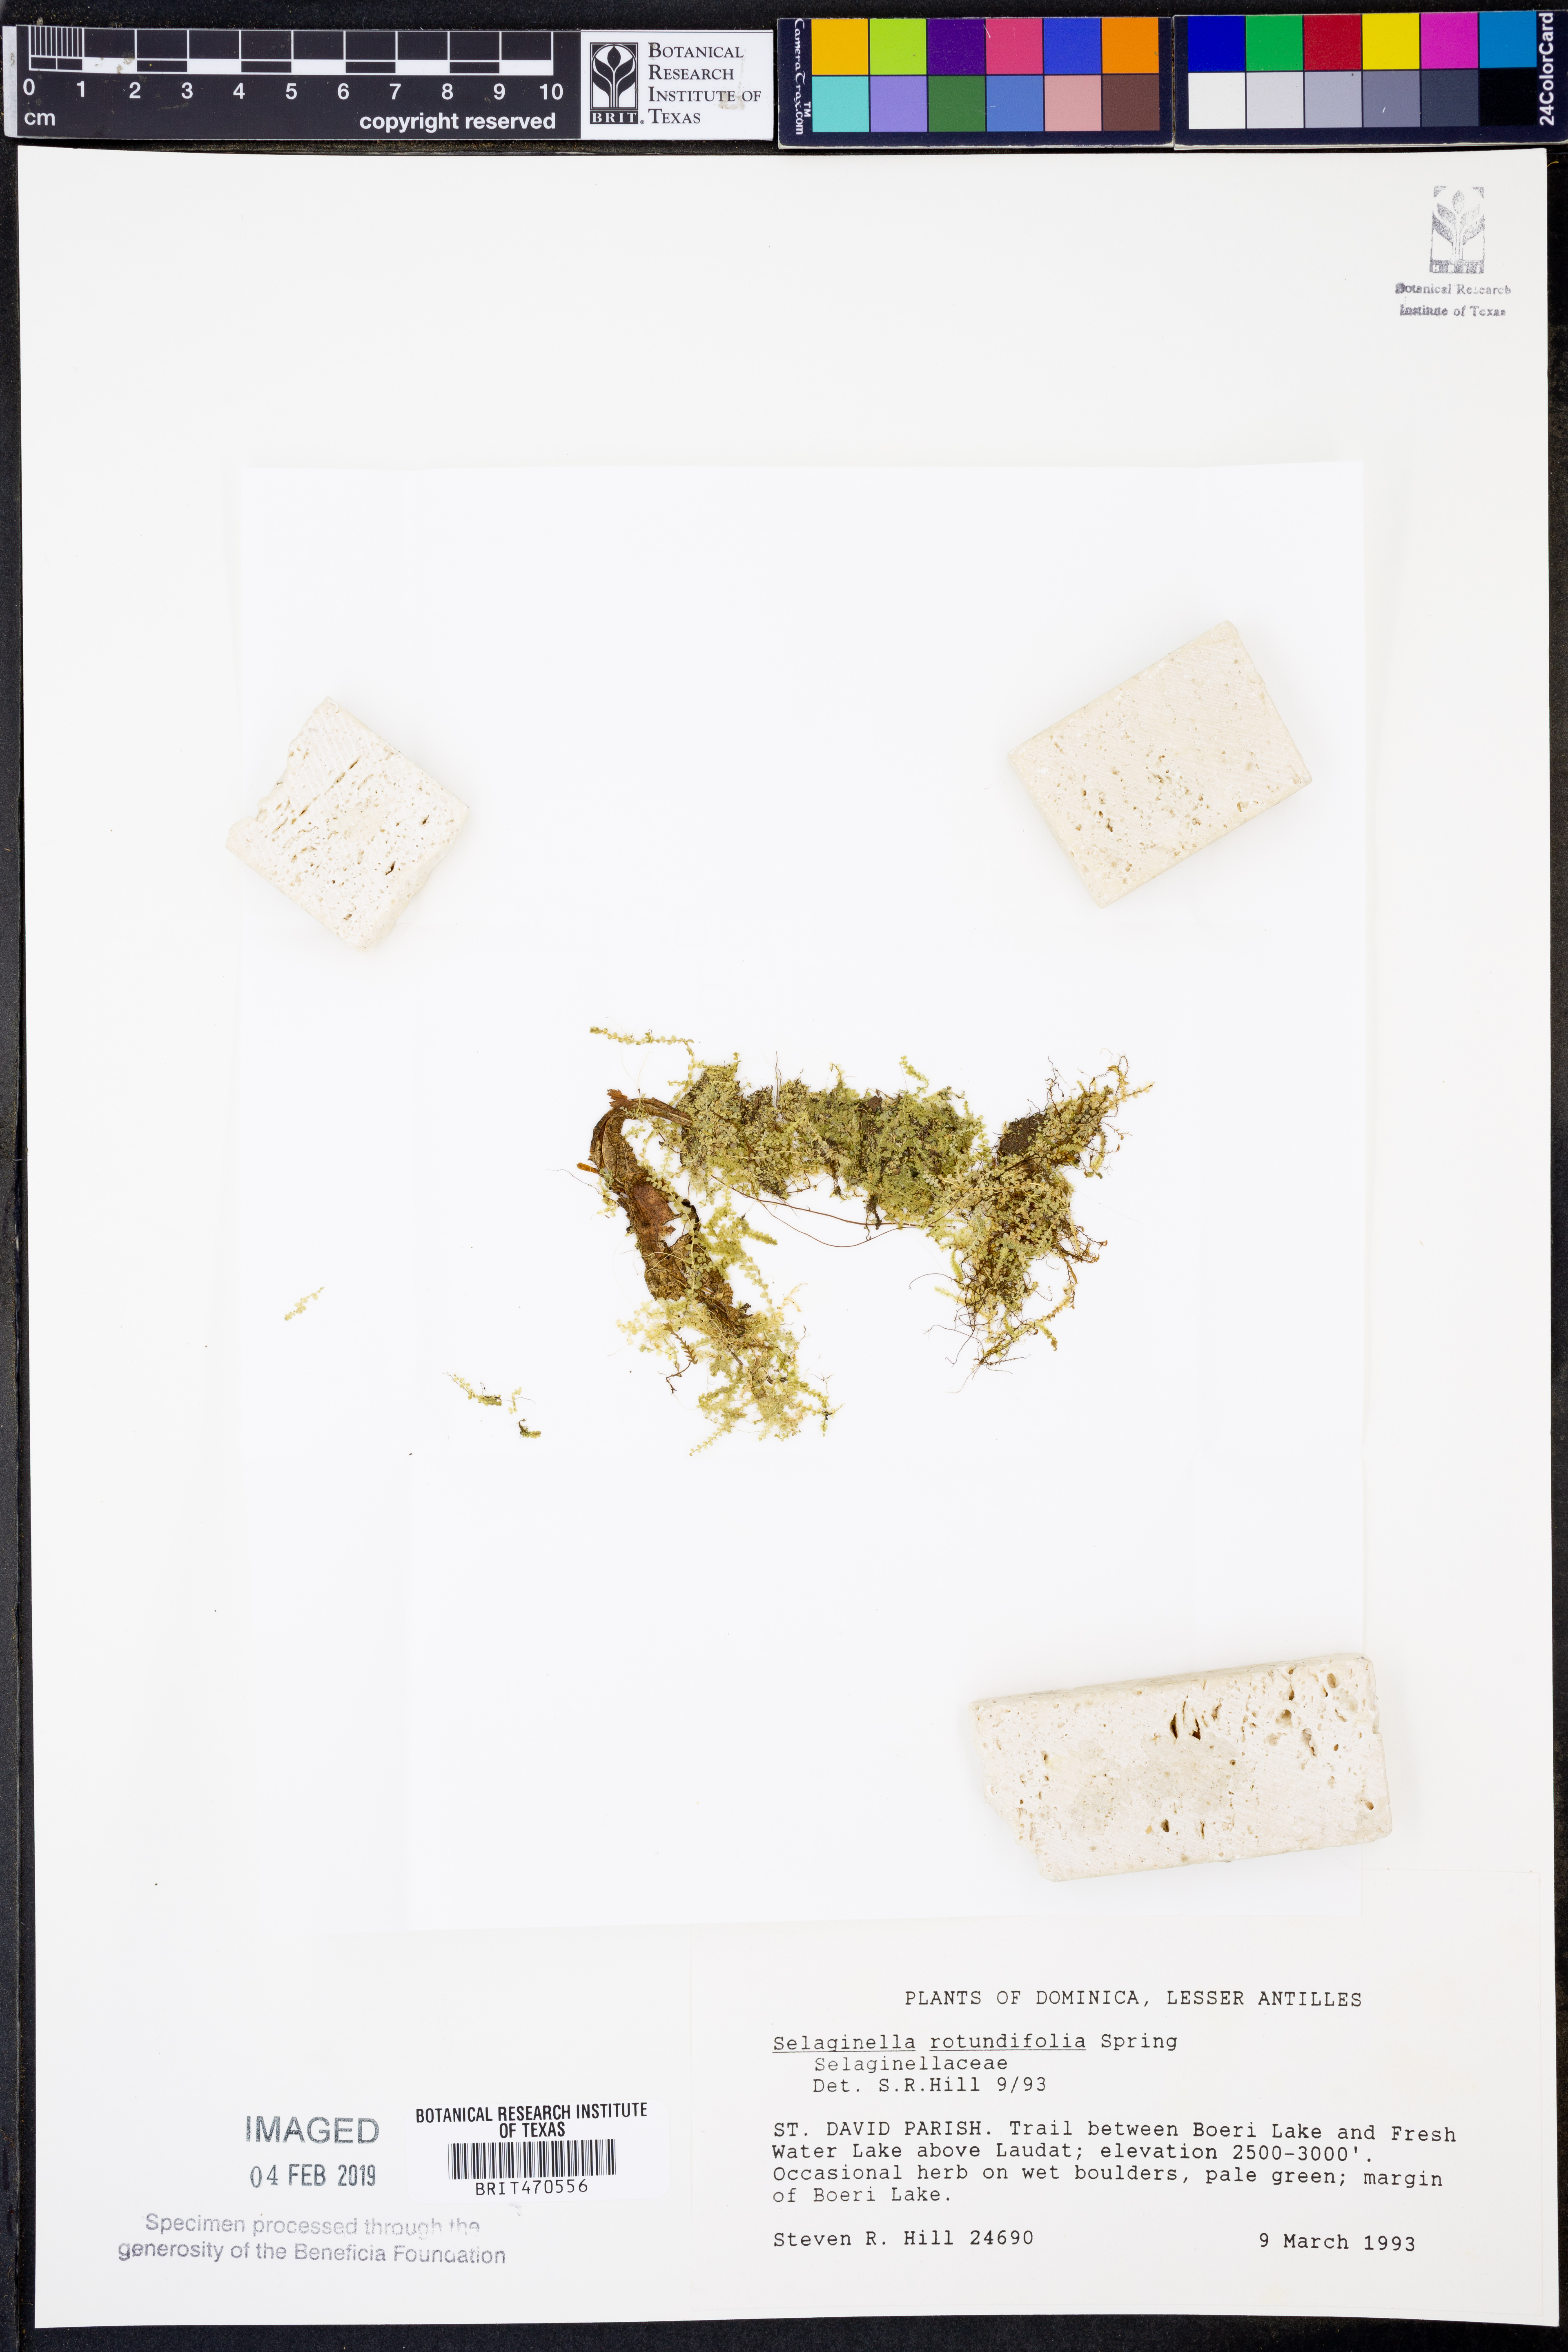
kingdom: Plantae
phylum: Tracheophyta
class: Lycopodiopsida
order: Selaginellales
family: Selaginellaceae
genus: Selaginella
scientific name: Selaginella rotundifolia
